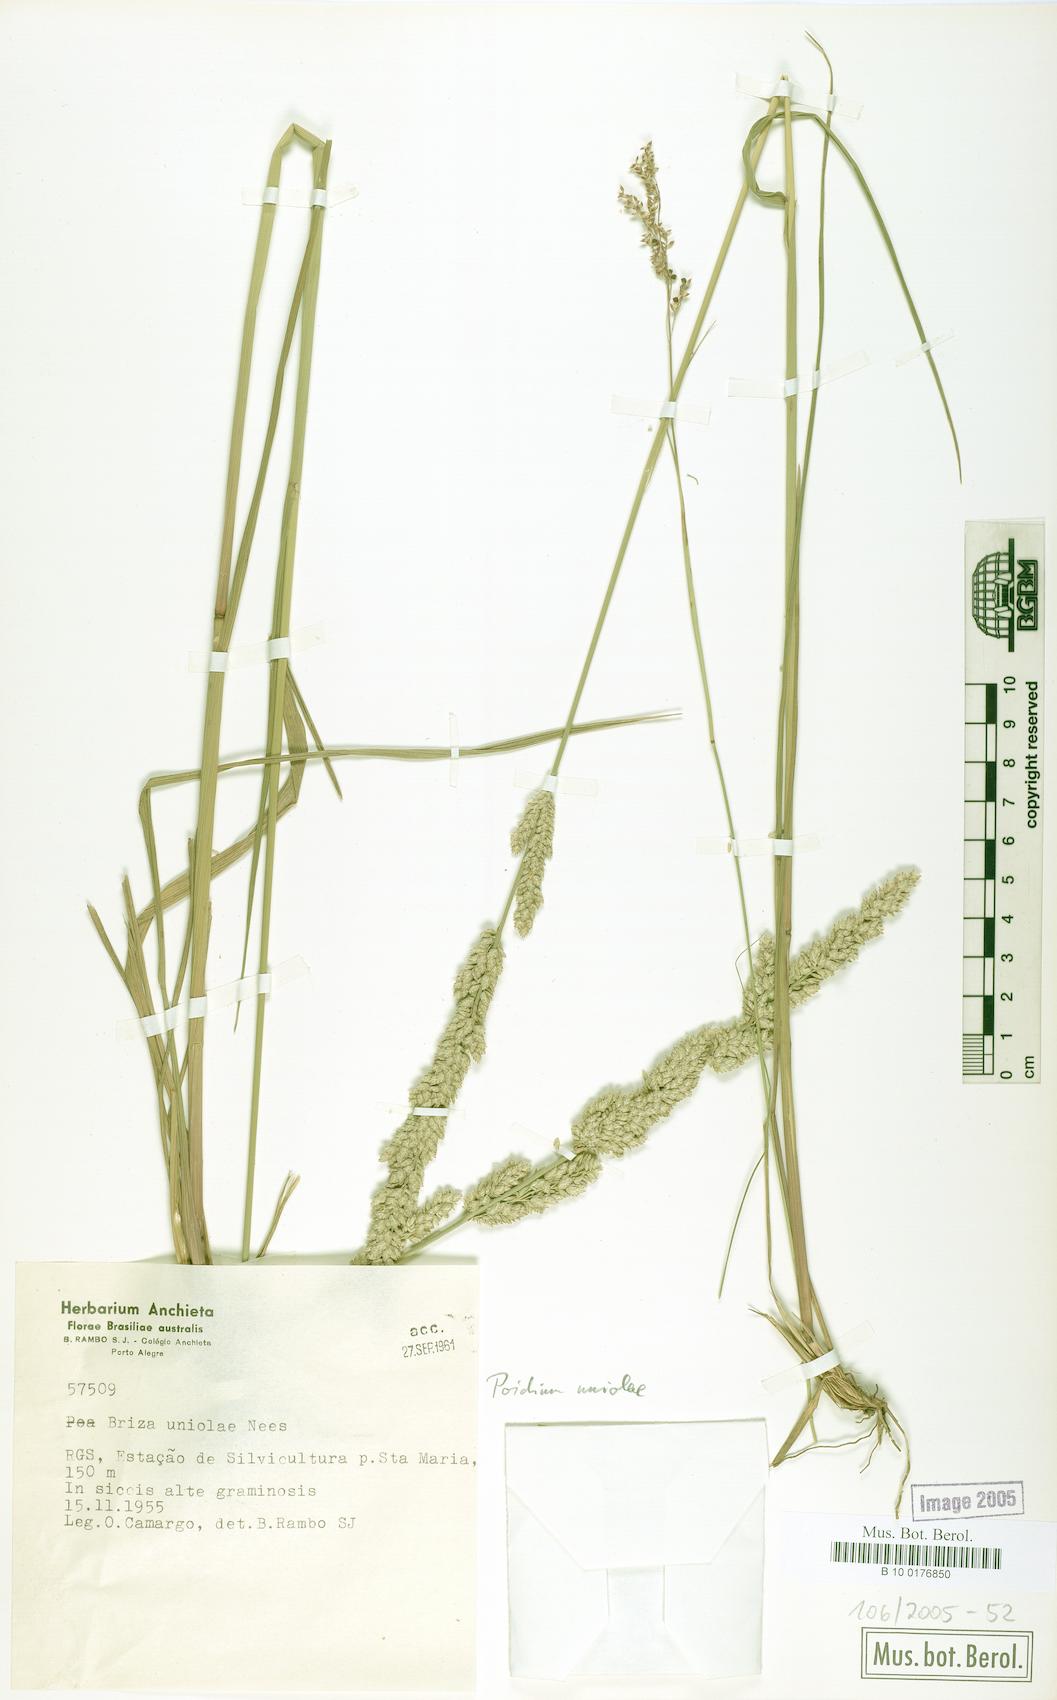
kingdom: Plantae
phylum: Tracheophyta
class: Liliopsida
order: Poales
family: Poaceae
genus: Poidium
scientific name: Poidium uniolae
